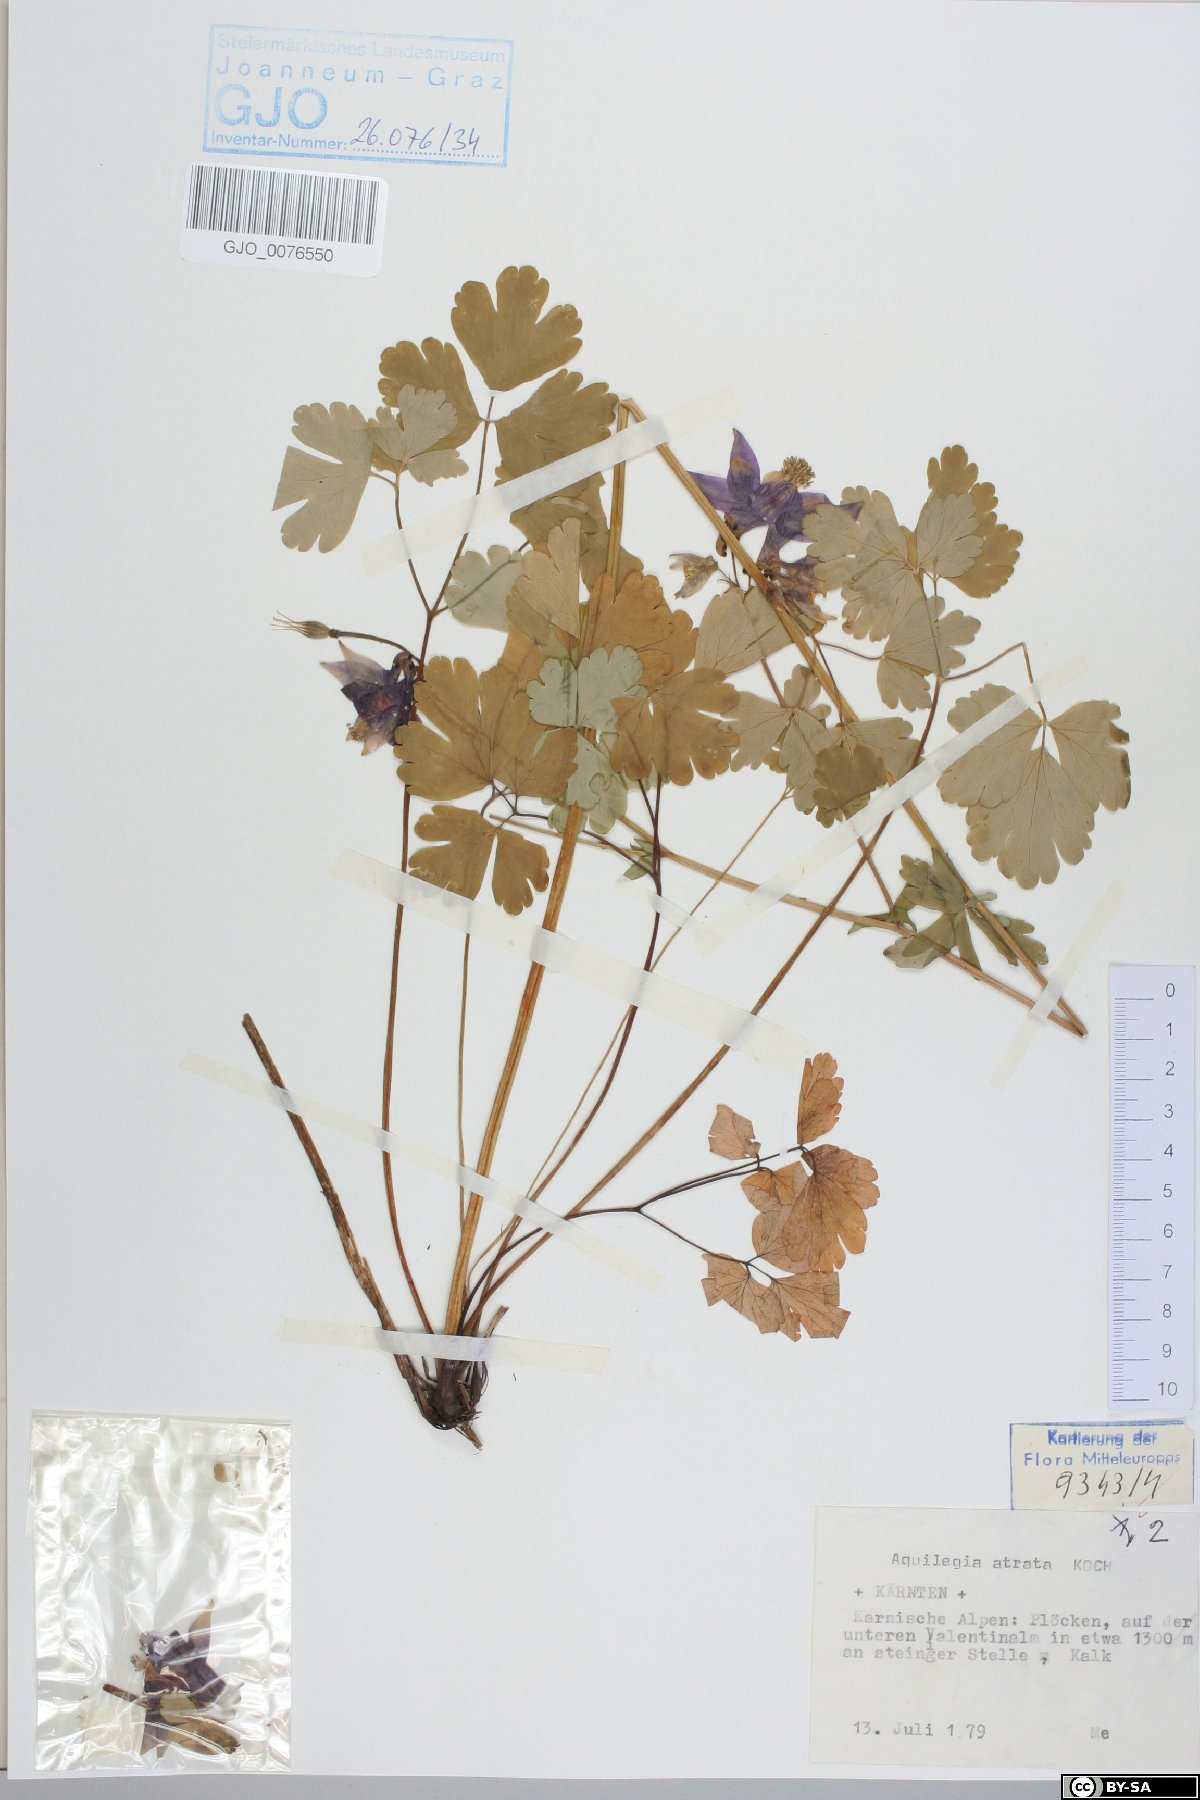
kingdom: Plantae
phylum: Tracheophyta
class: Magnoliopsida
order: Ranunculales
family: Ranunculaceae
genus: Aquilegia
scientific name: Aquilegia atrata
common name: Dark columbine
